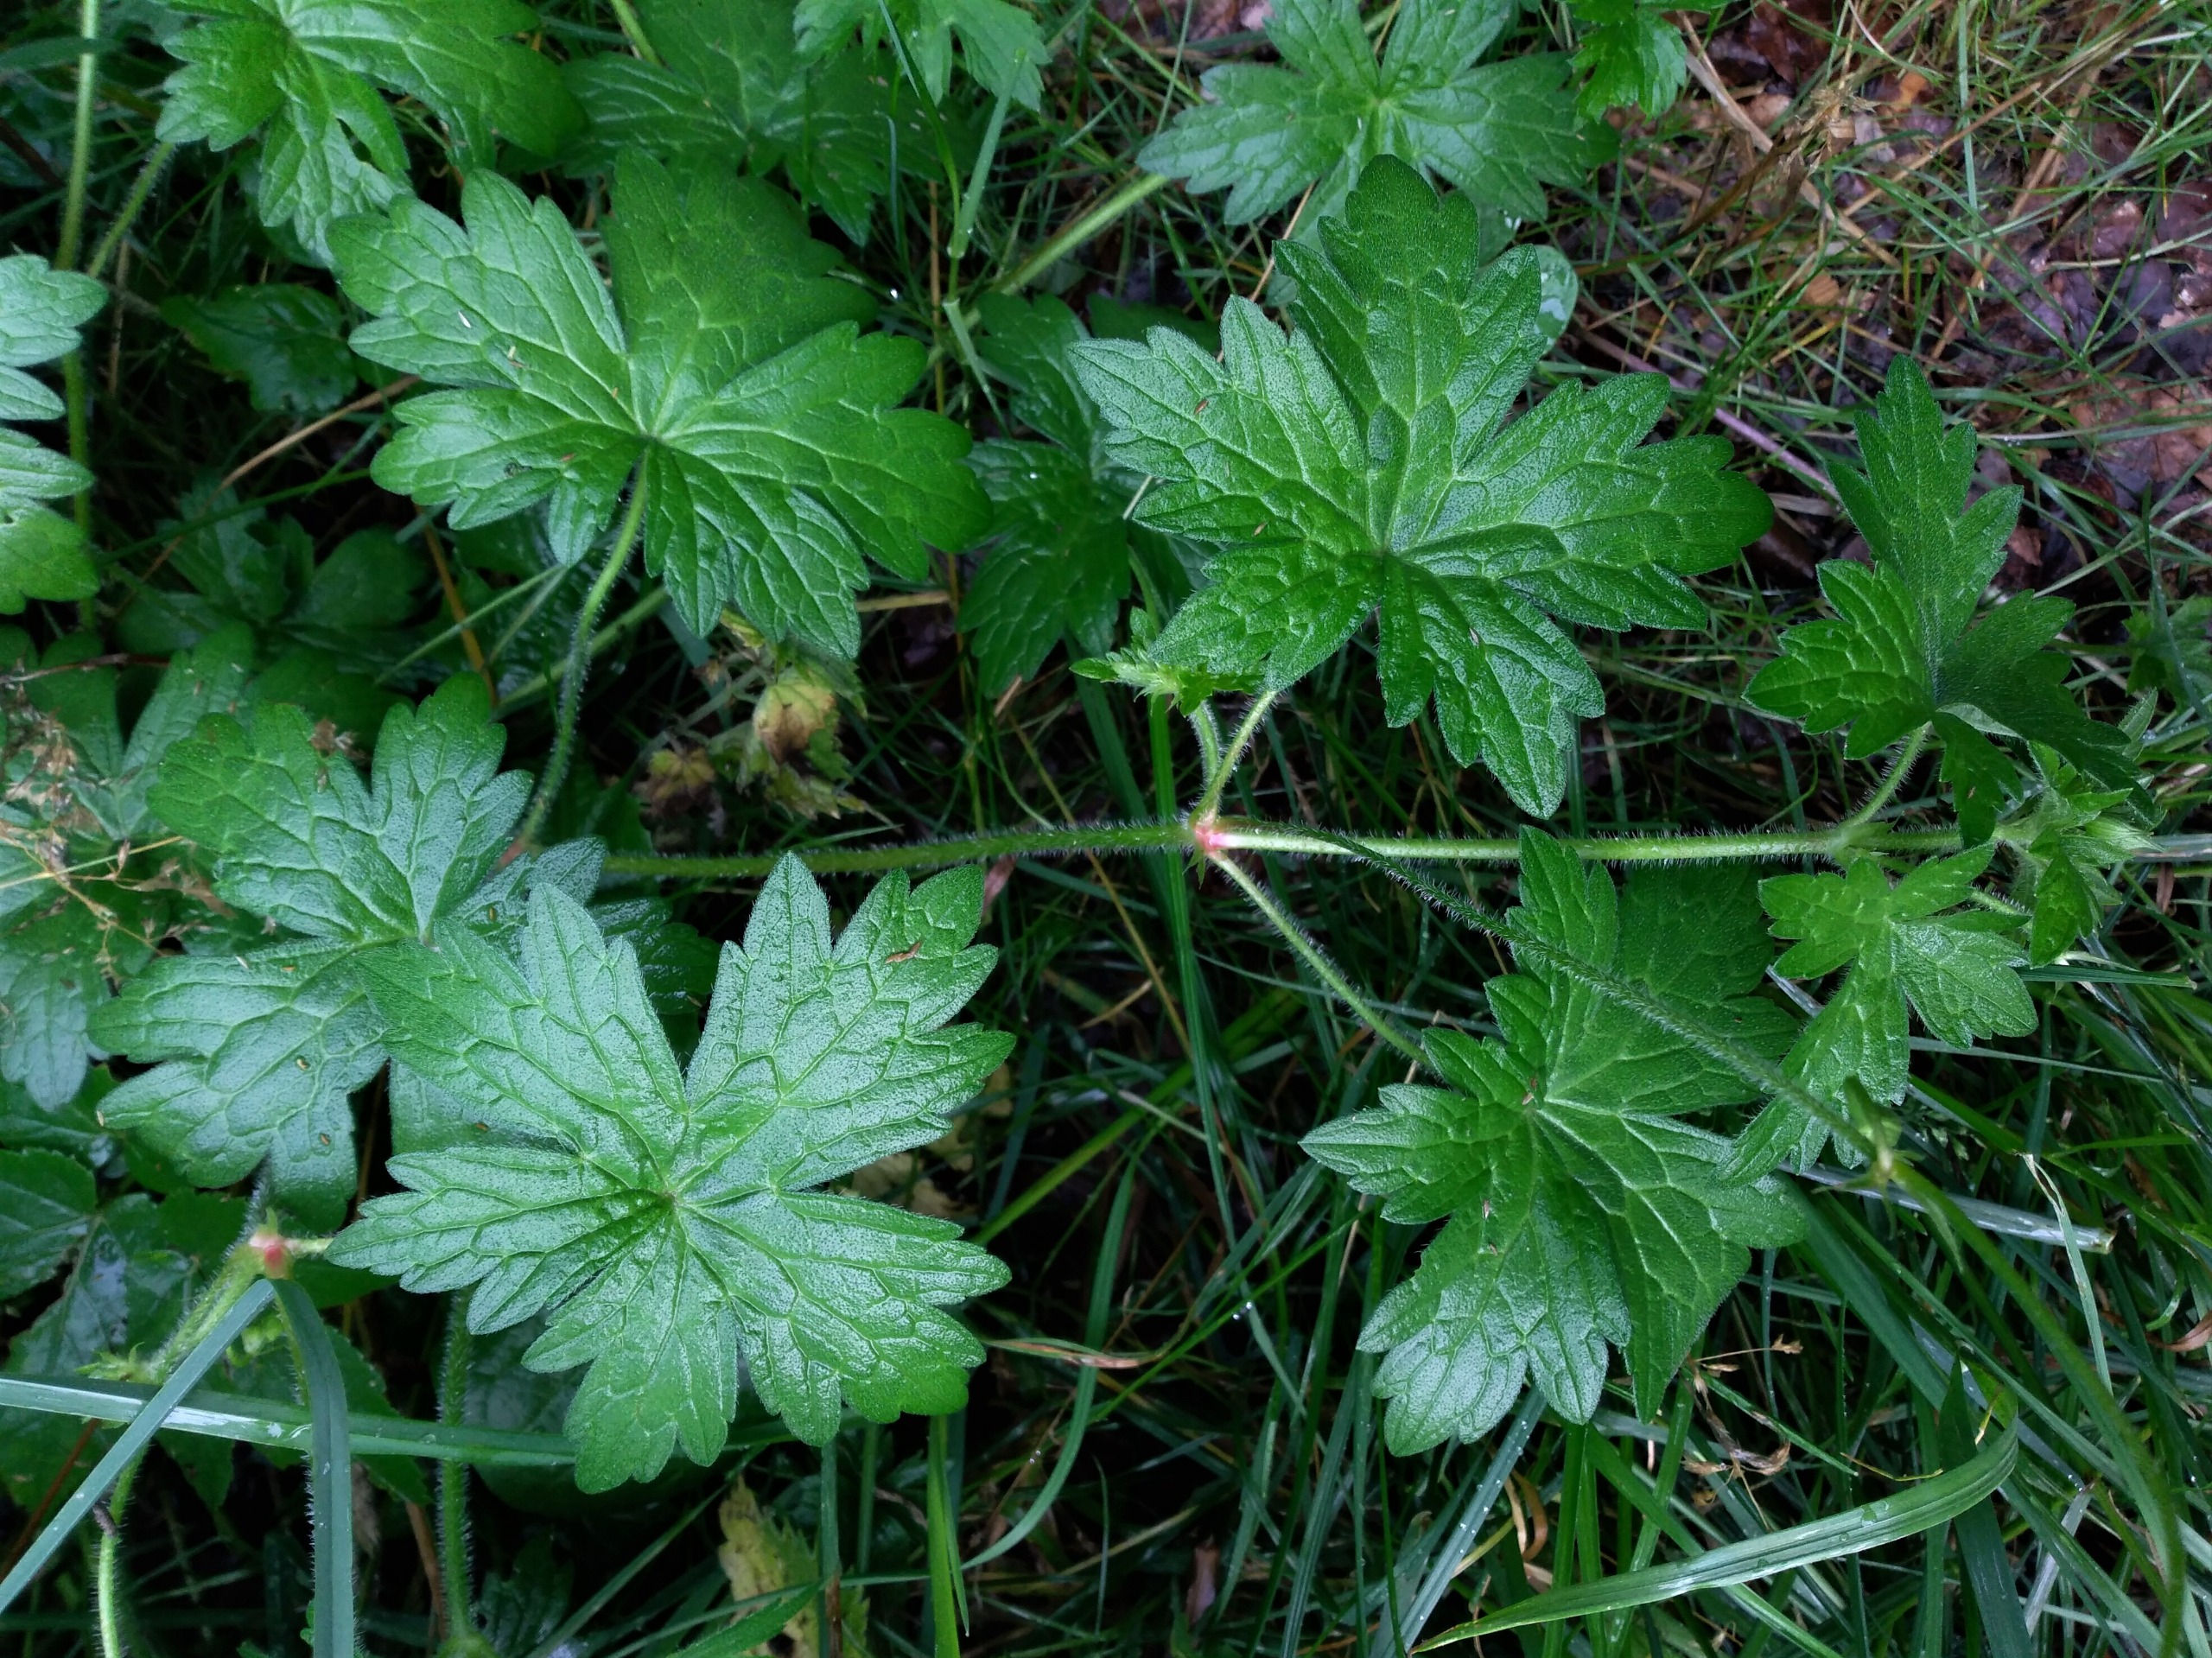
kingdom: Plantae
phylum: Tracheophyta
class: Magnoliopsida
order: Geraniales
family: Geraniaceae
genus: Geranium
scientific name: Geranium palustre
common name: Kær-storkenæb
